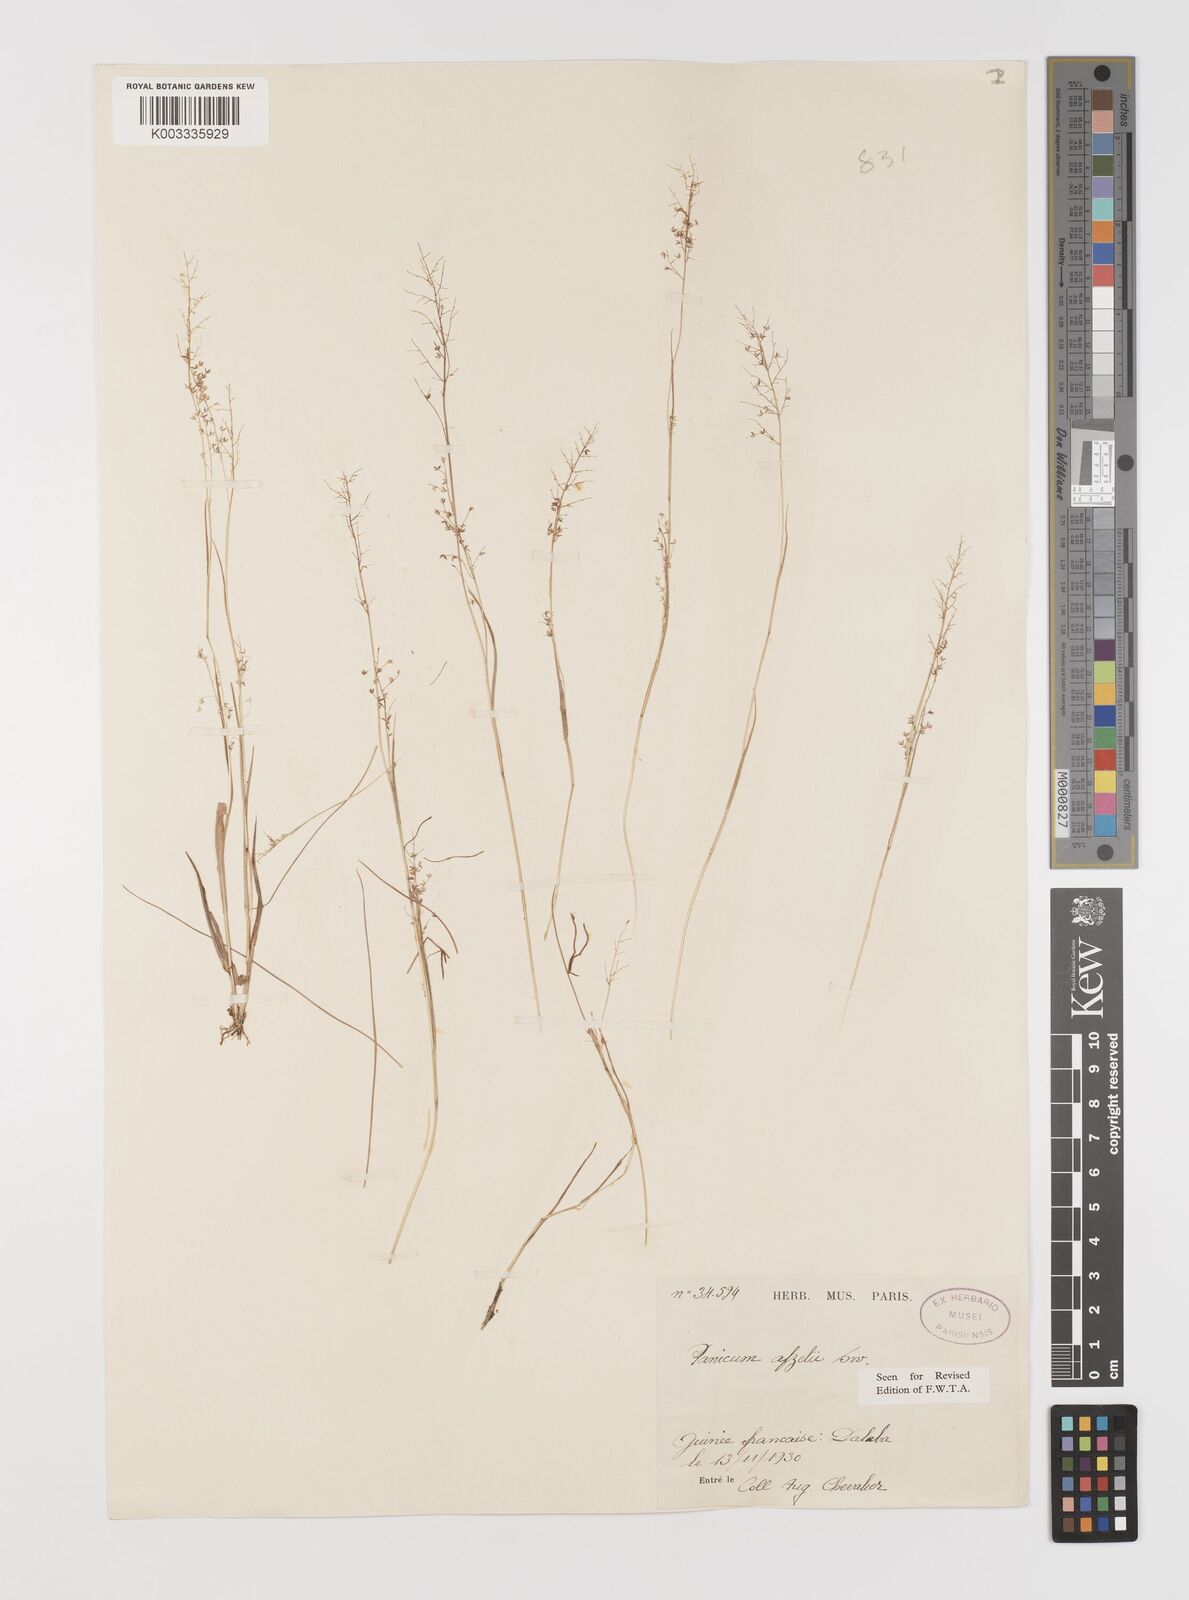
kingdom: Plantae
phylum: Tracheophyta
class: Liliopsida
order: Poales
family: Poaceae
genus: Panicum
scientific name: Panicum afzelii
